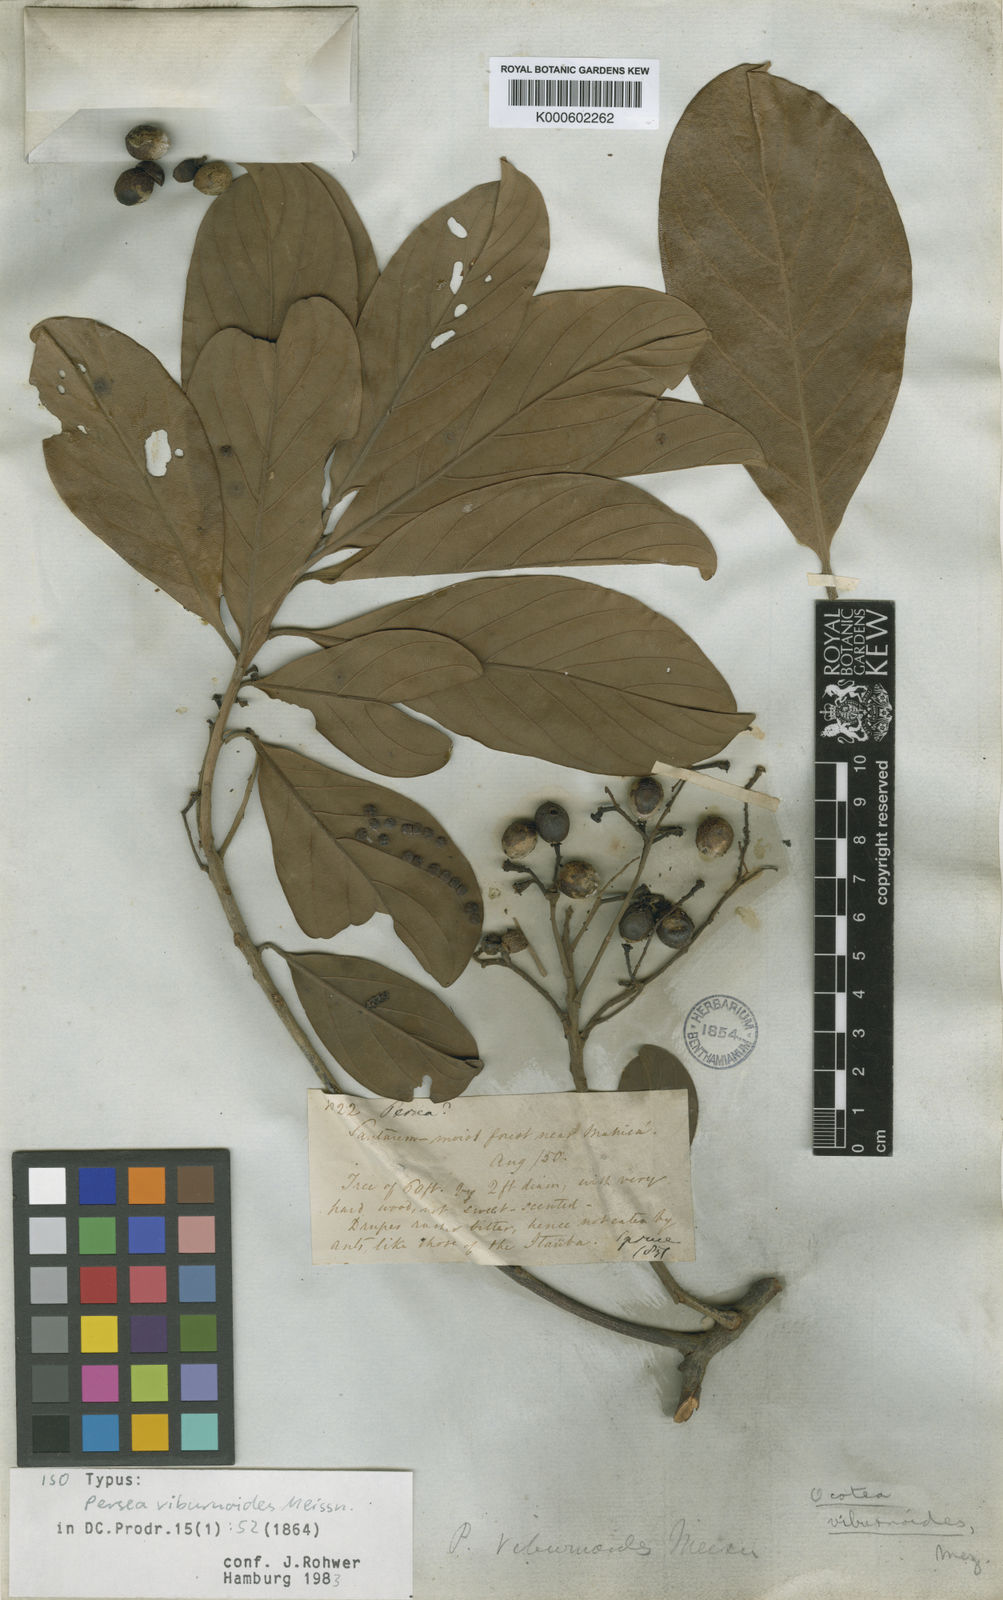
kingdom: Plantae
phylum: Tracheophyta
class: Magnoliopsida
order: Laurales
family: Lauraceae
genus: Ocotea
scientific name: Ocotea viburnoides
